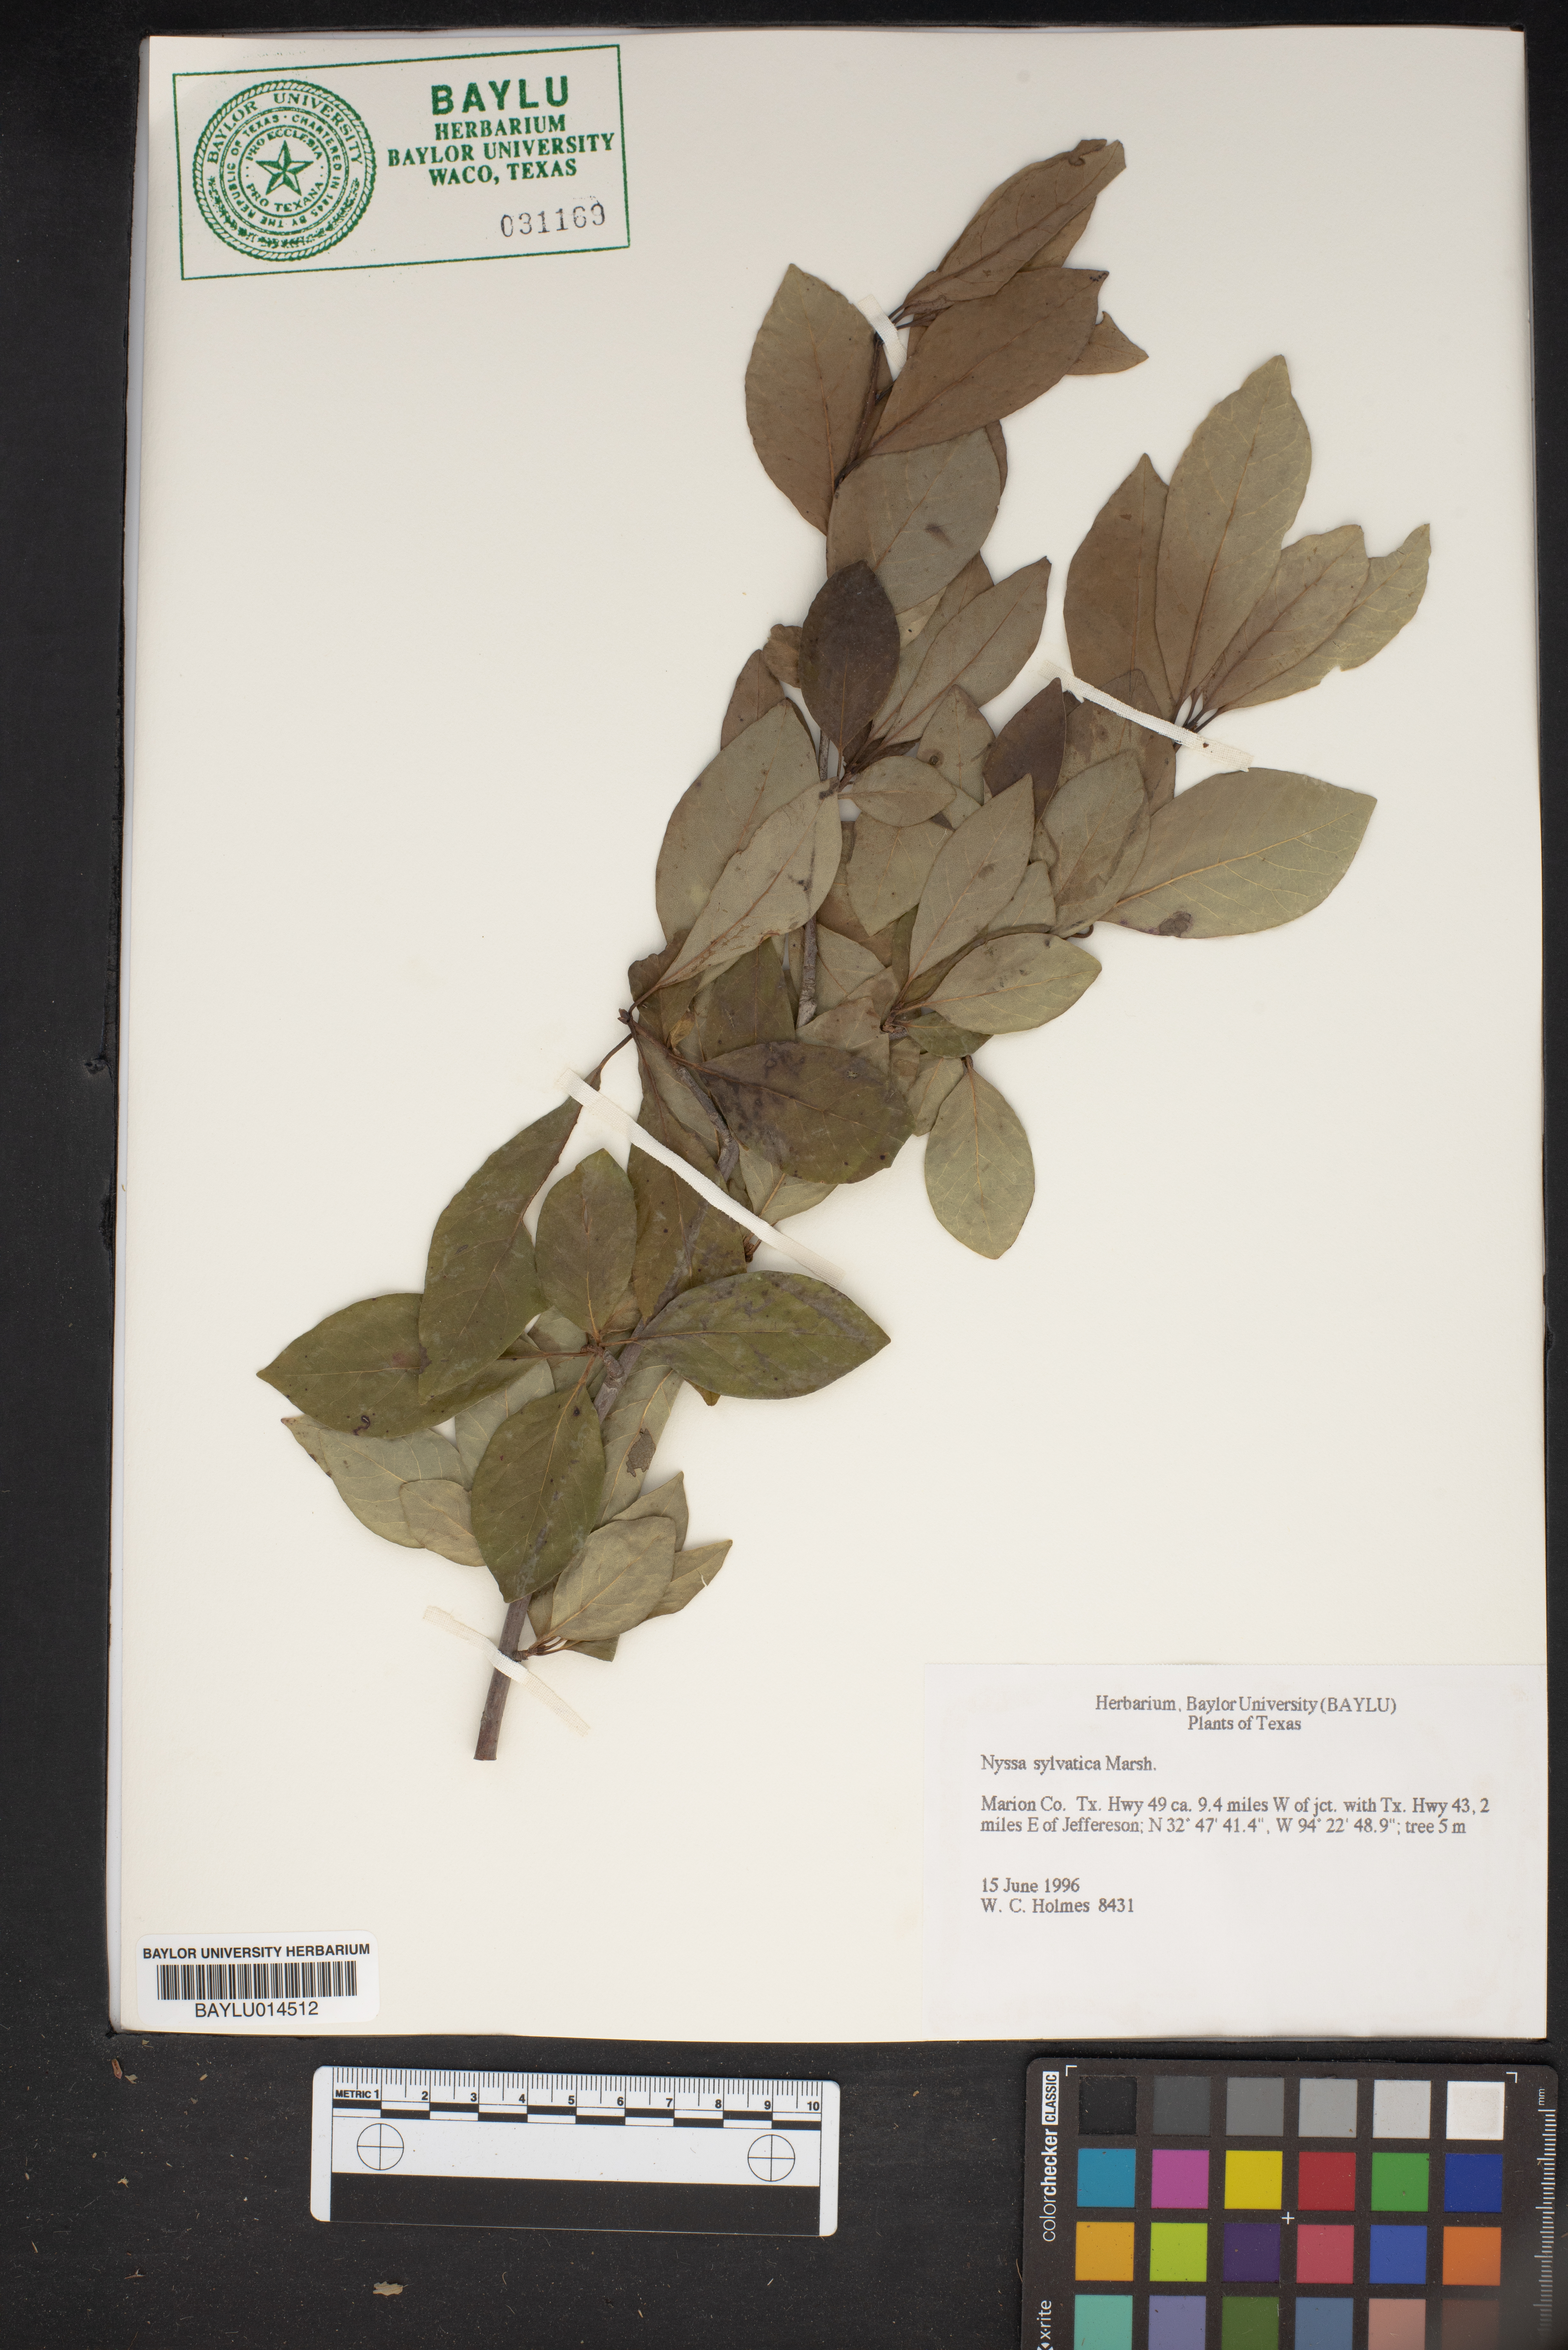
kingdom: Plantae
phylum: Tracheophyta
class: Magnoliopsida
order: Cornales
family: Nyssaceae
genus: Nyssa
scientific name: Nyssa sylvatica
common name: Black tupelo
